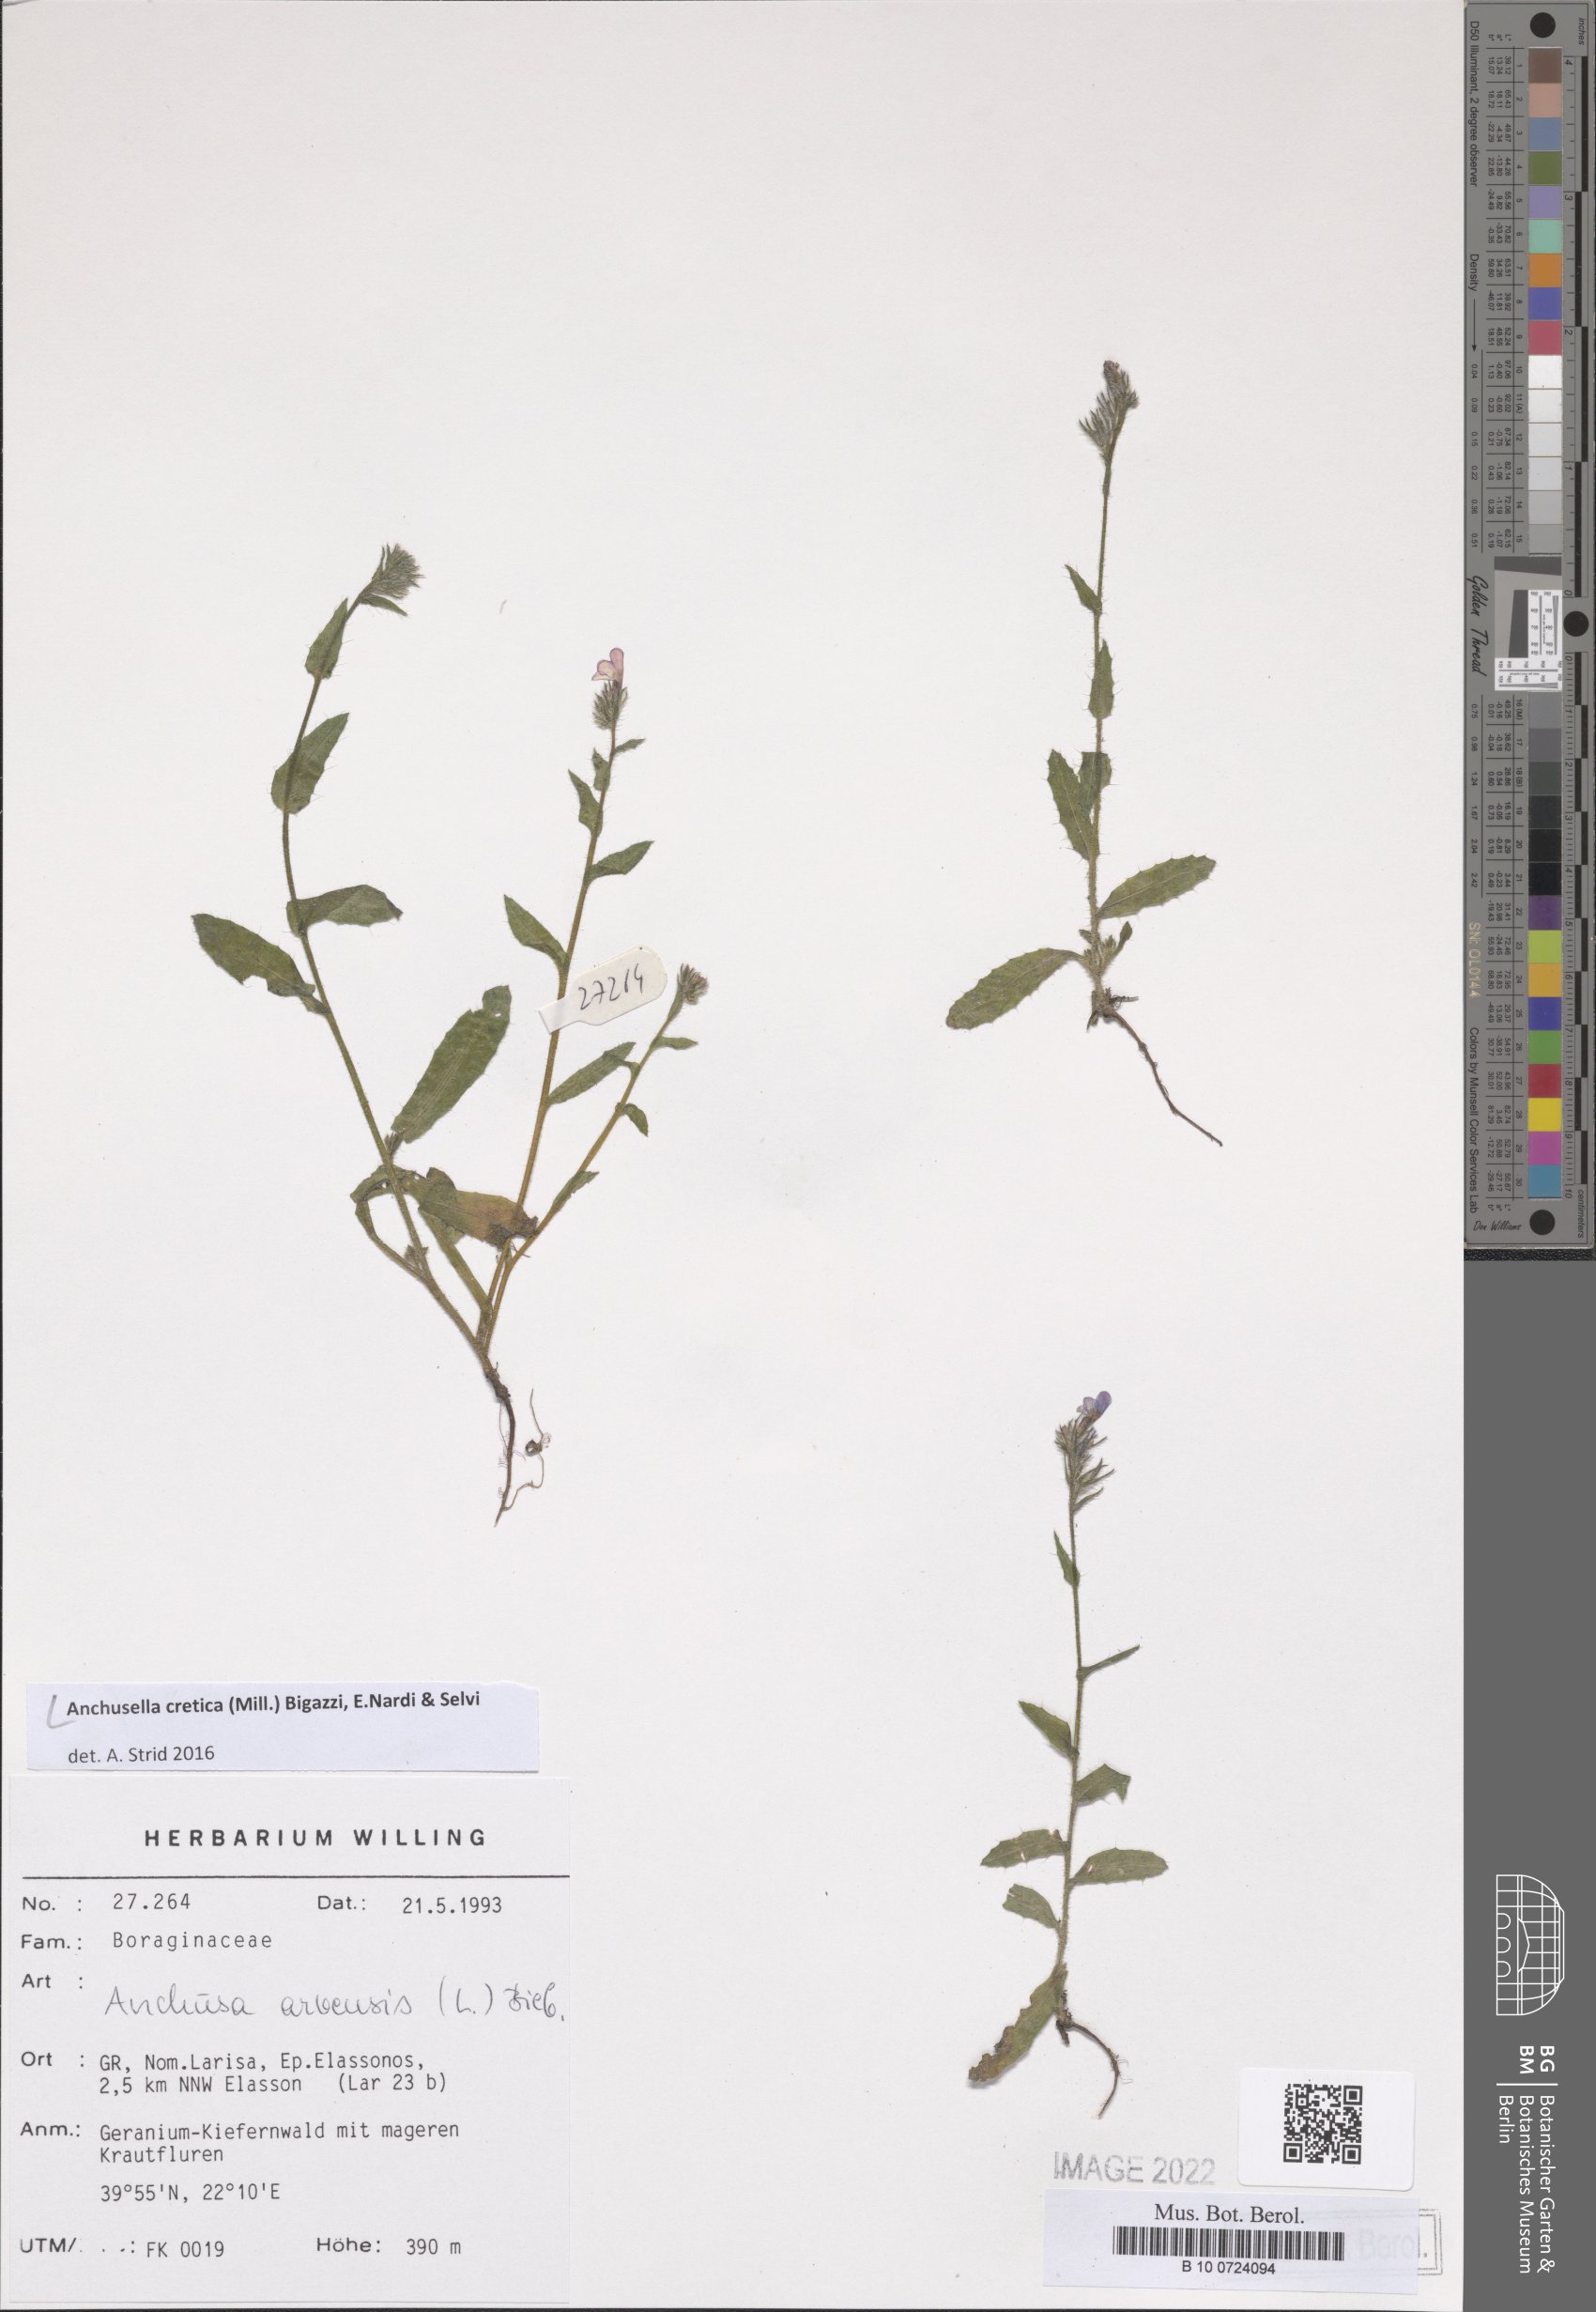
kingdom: Plantae
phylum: Tracheophyta
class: Magnoliopsida
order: Boraginales
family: Boraginaceae
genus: Anchusella
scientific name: Anchusella cretica
